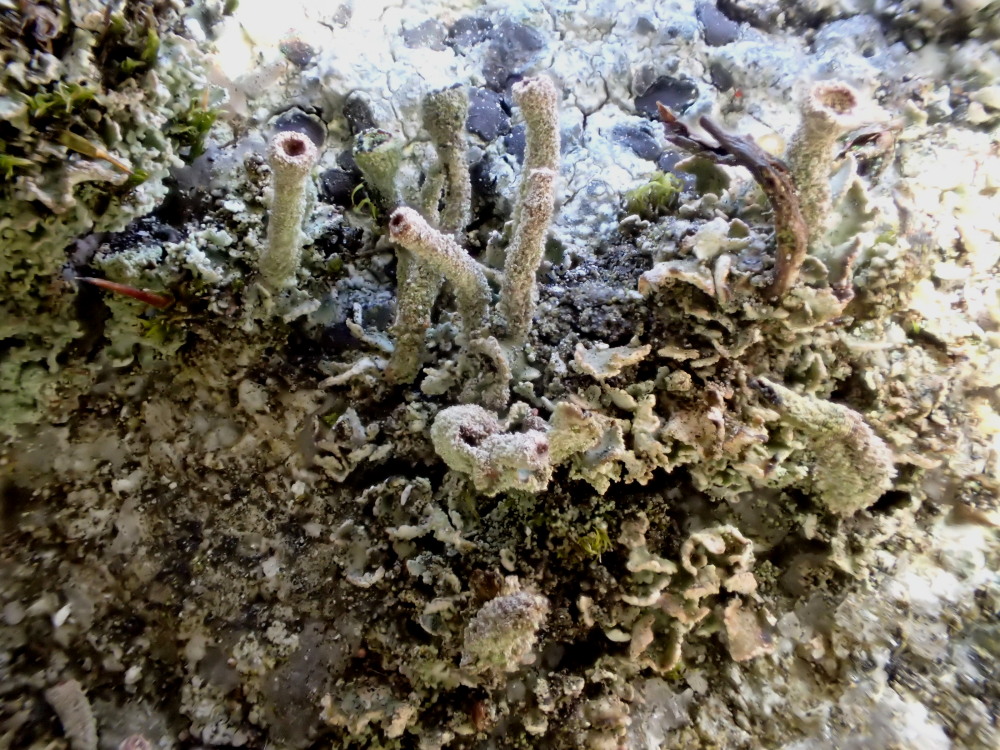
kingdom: Fungi
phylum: Ascomycota
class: Lecanoromycetes
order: Lecanorales
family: Cladoniaceae
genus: Cladonia
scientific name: Cladonia
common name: brungrøn bægerlav
